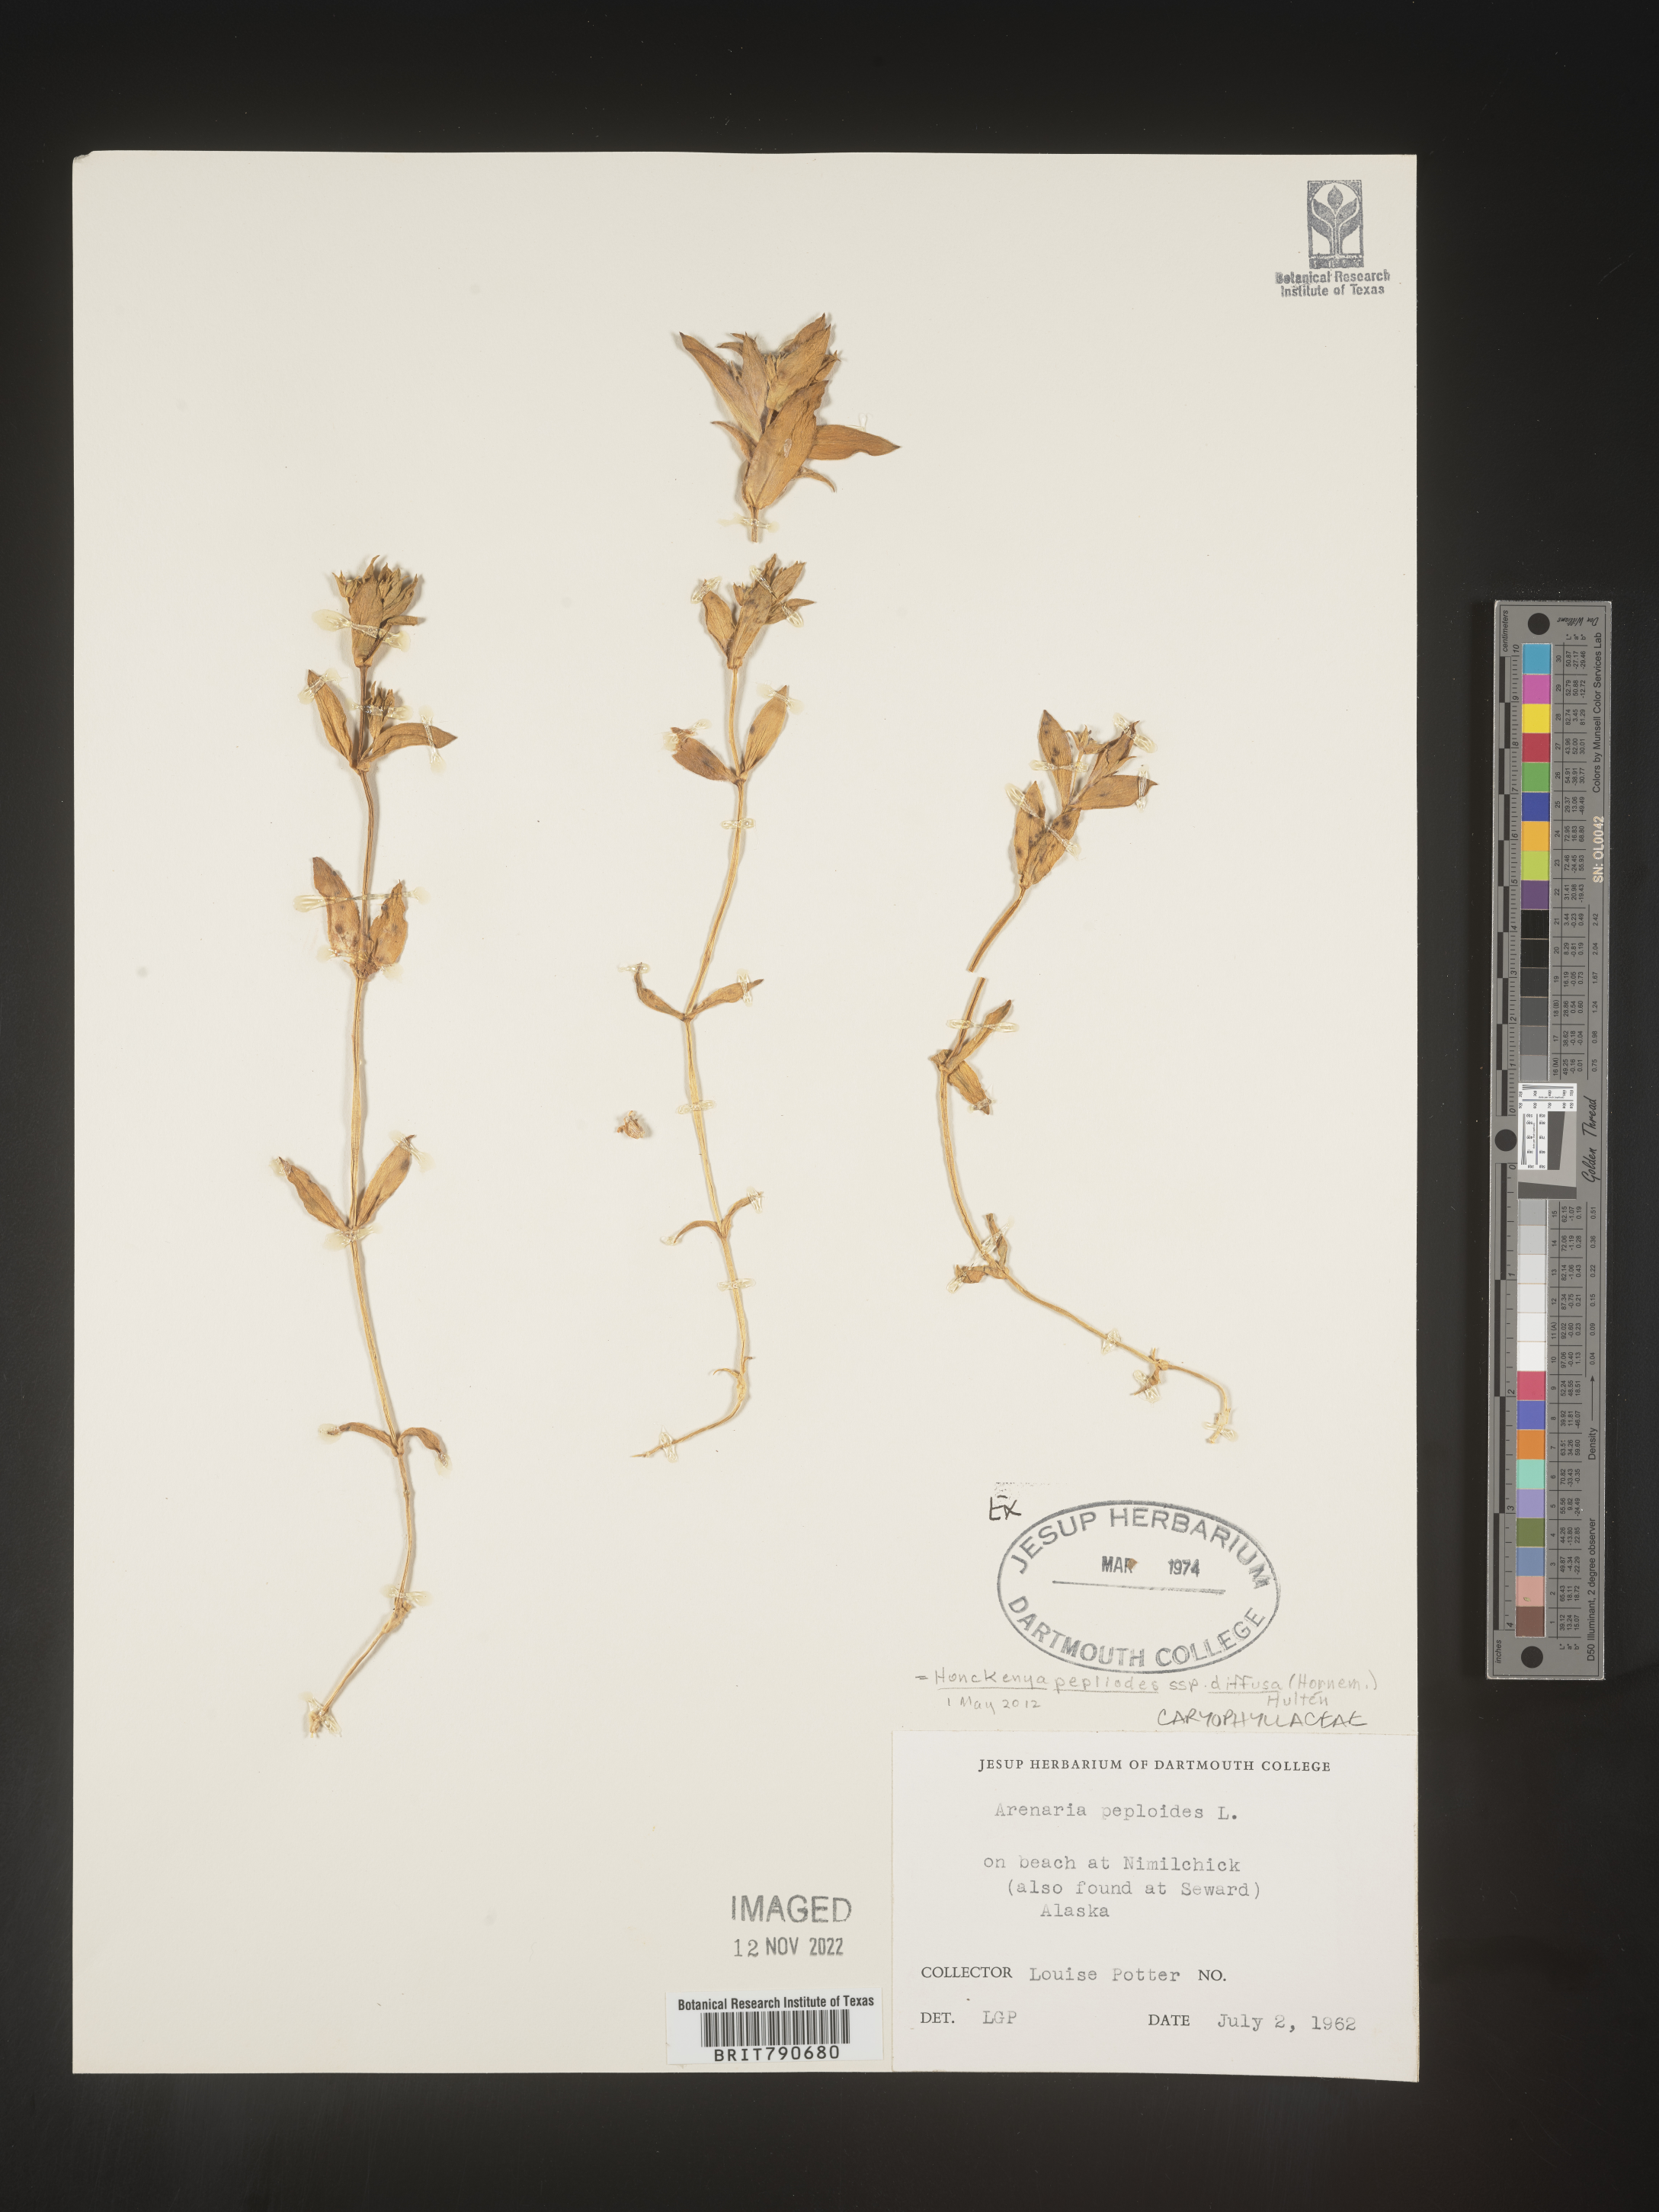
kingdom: Plantae
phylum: Tracheophyta
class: Magnoliopsida
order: Malvales
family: Malvaceae
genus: Clappertonia
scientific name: Clappertonia
